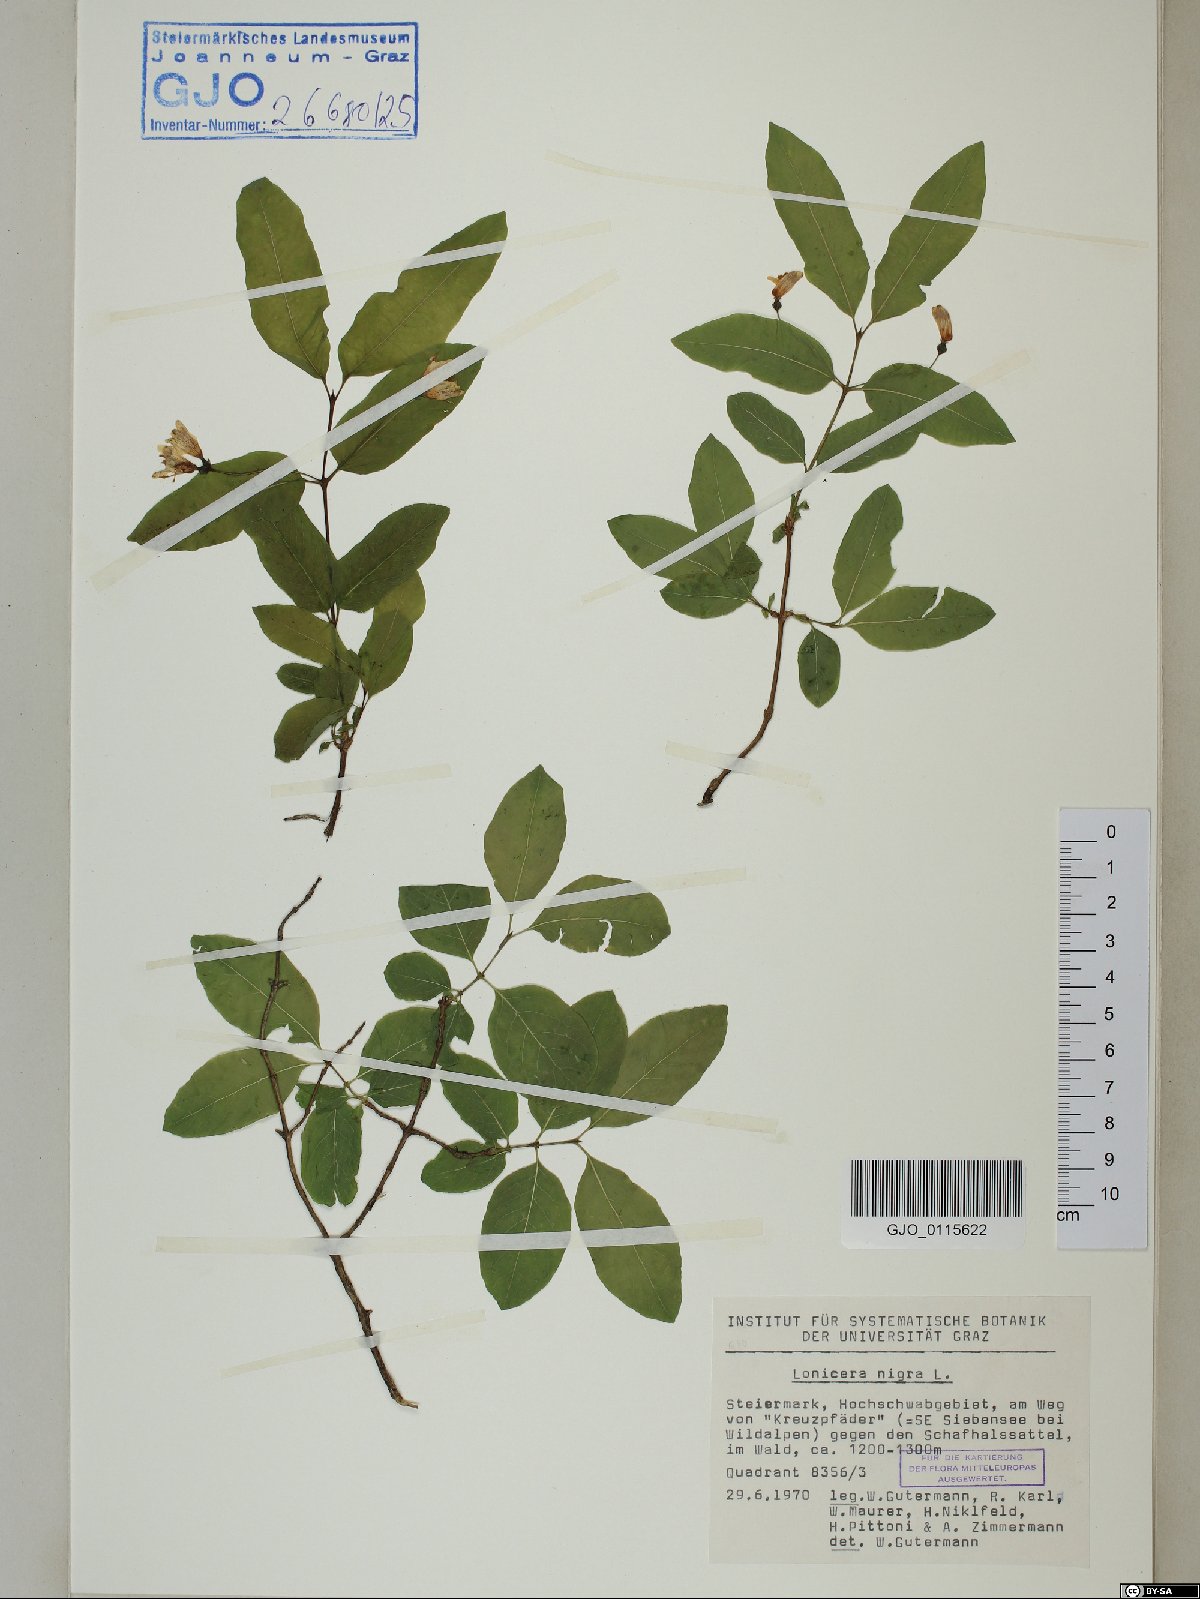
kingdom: Plantae
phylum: Tracheophyta
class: Magnoliopsida
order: Dipsacales
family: Caprifoliaceae
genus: Lonicera
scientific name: Lonicera nigra
